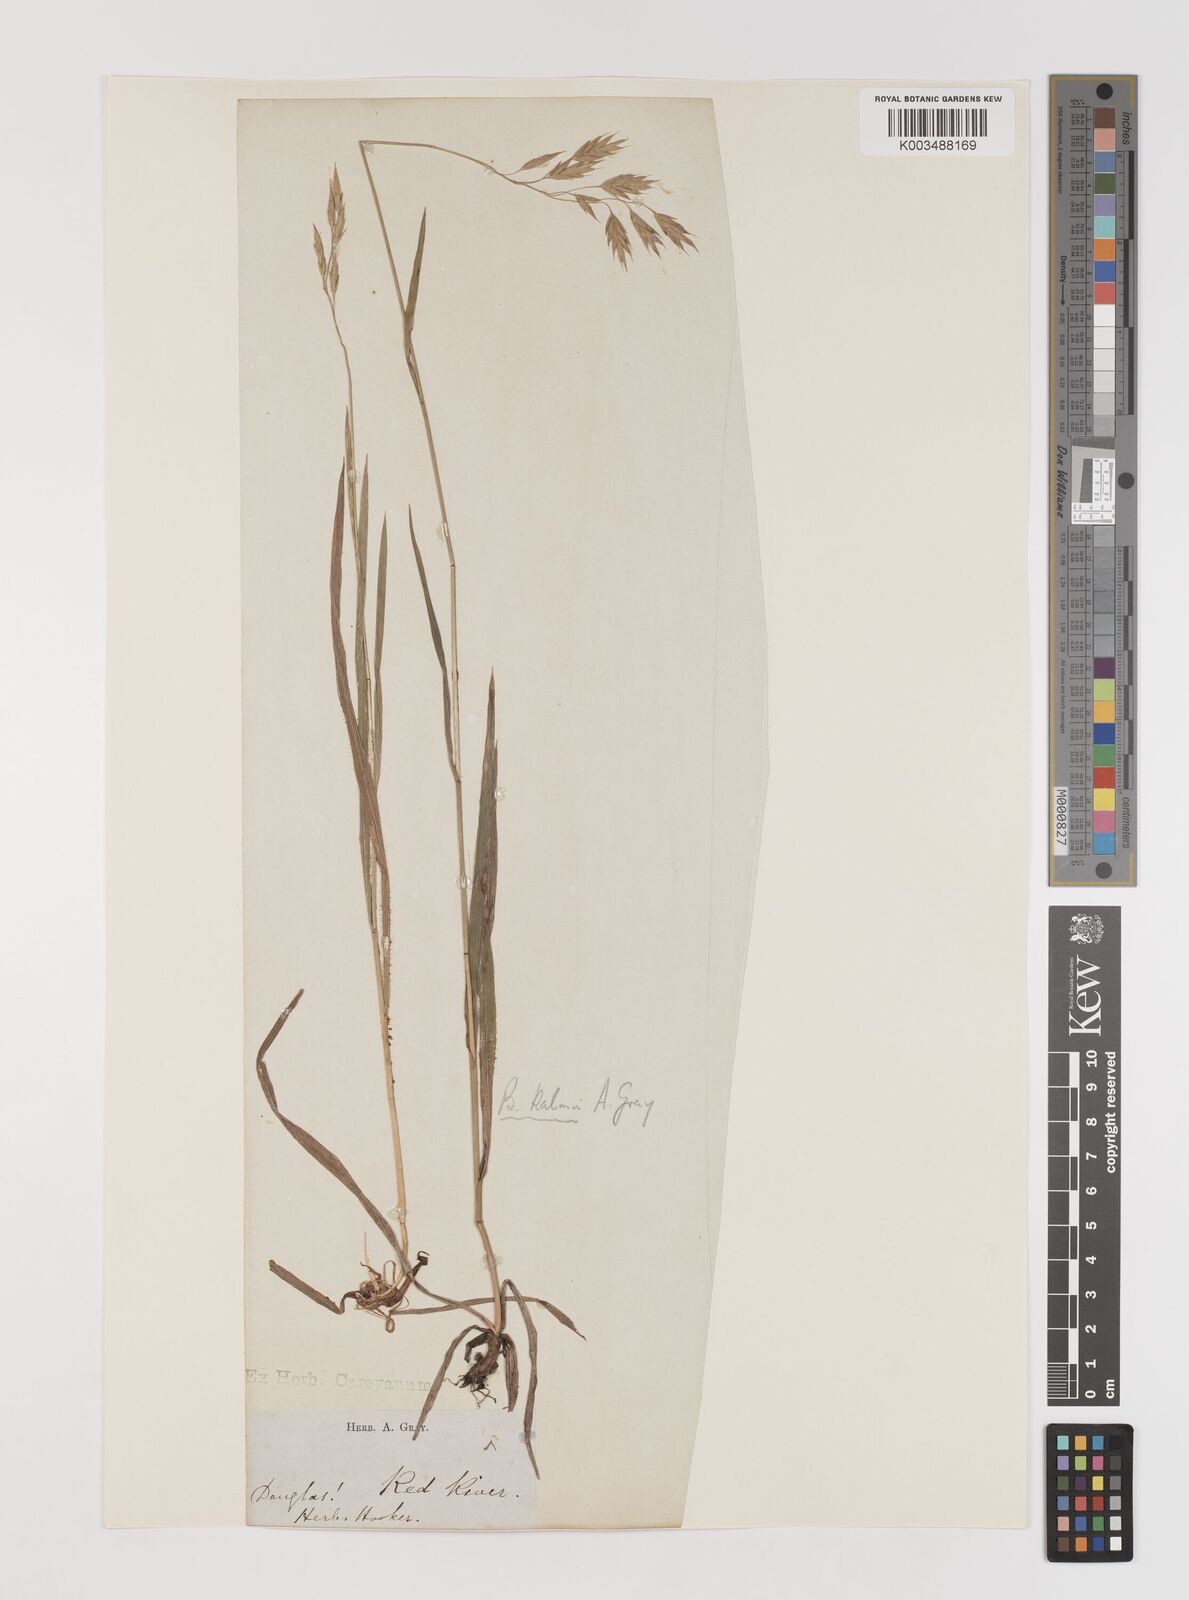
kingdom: Plantae
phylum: Tracheophyta
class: Liliopsida
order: Poales
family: Poaceae
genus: Bromus
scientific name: Bromus kalmii
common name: Kalm brome
